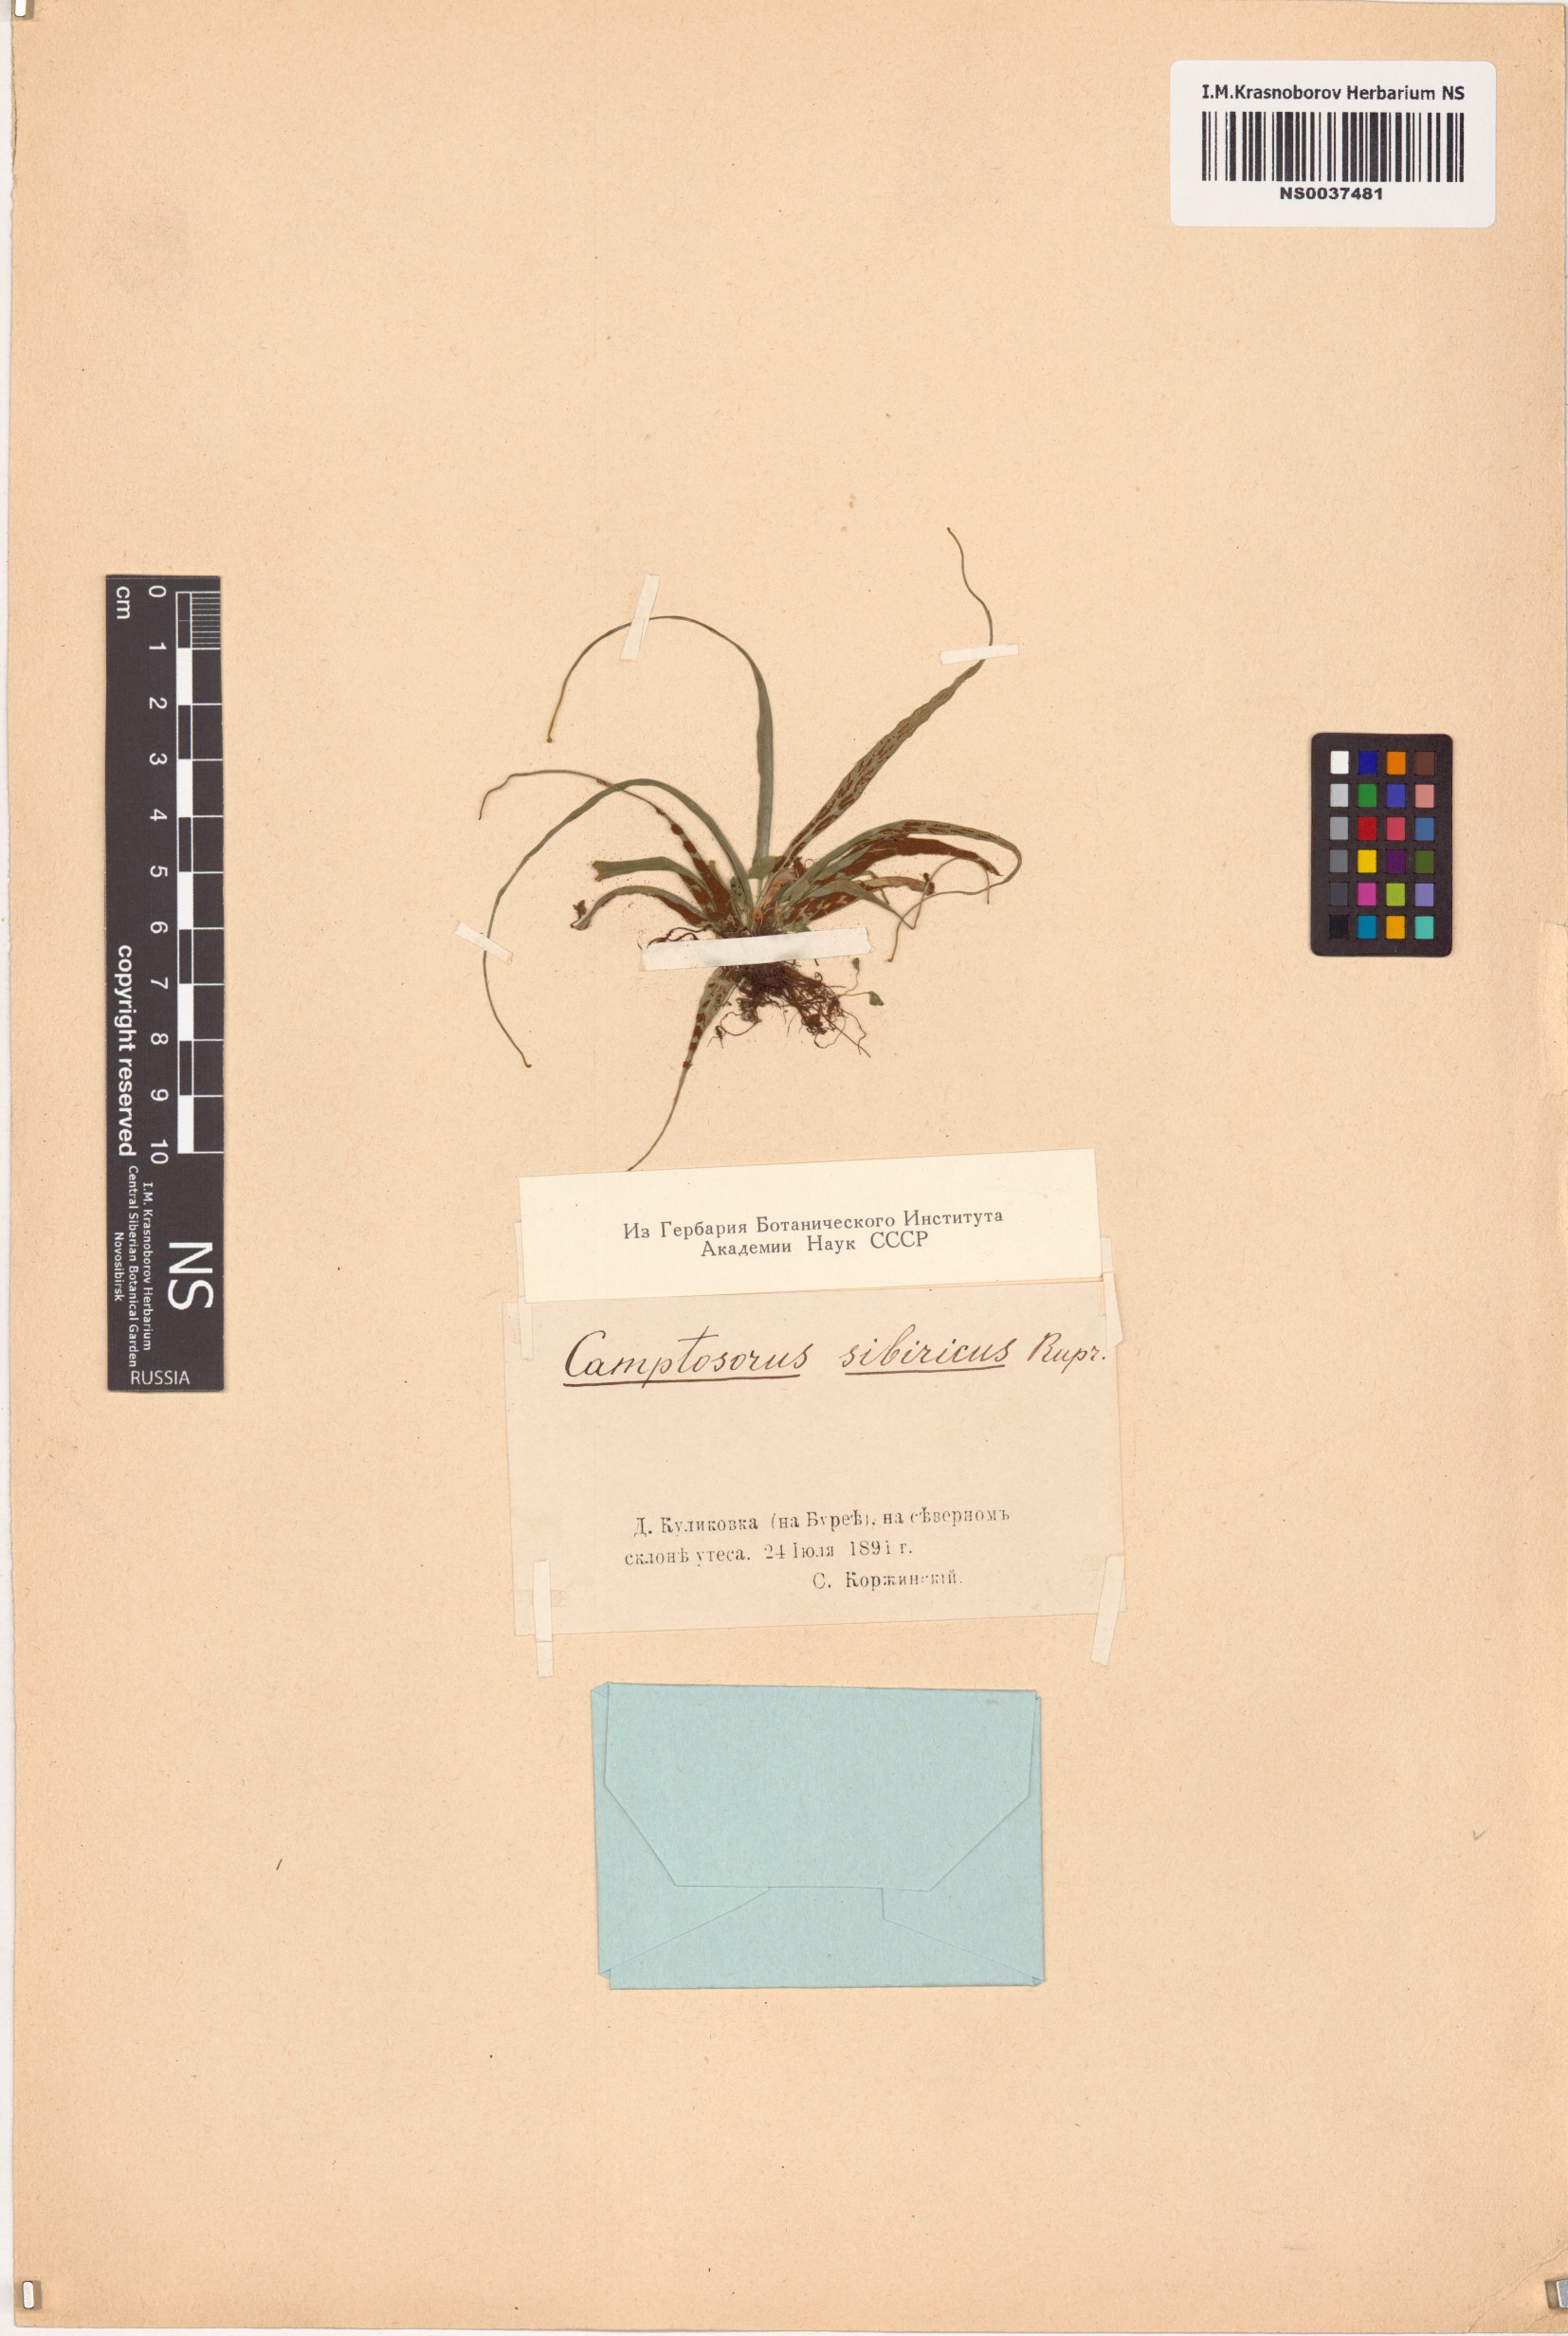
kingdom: Plantae
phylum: Tracheophyta
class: Polypodiopsida
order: Polypodiales
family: Aspleniaceae
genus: Asplenium
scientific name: Asplenium ruprechtii
